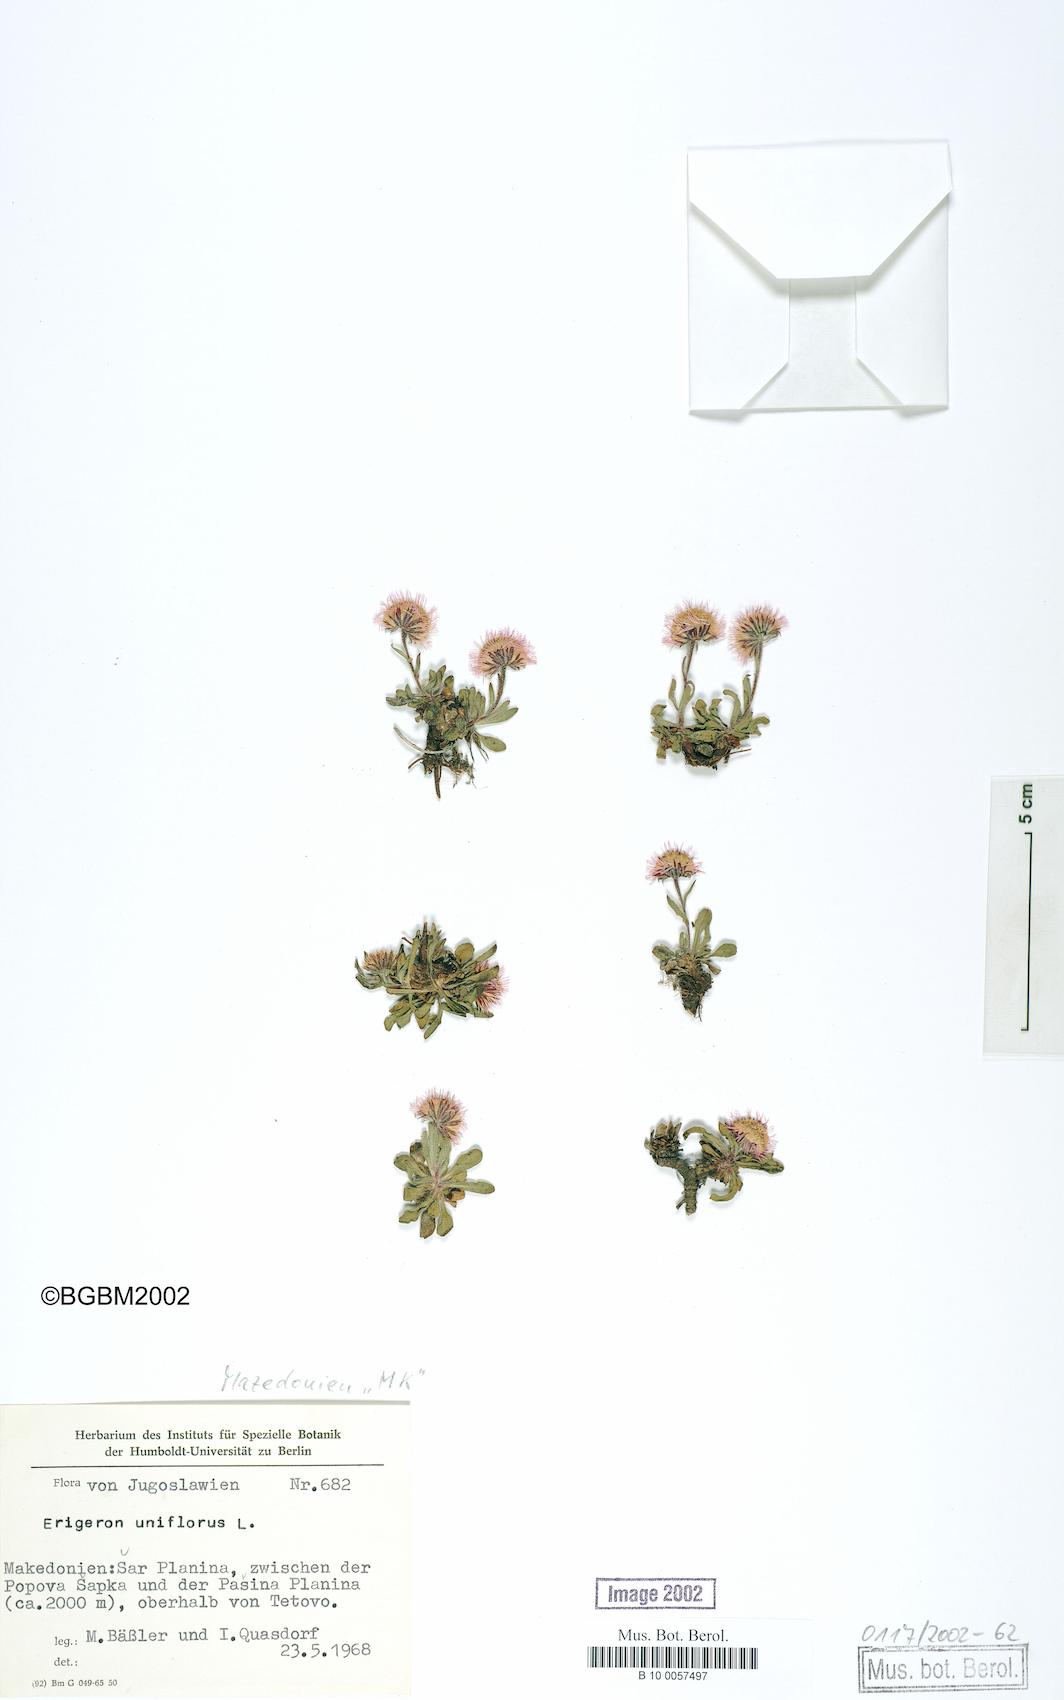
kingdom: Plantae
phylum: Tracheophyta
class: Magnoliopsida
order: Asterales
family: Asteraceae
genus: Erigeron
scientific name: Erigeron uniflorus
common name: Northern daisy
